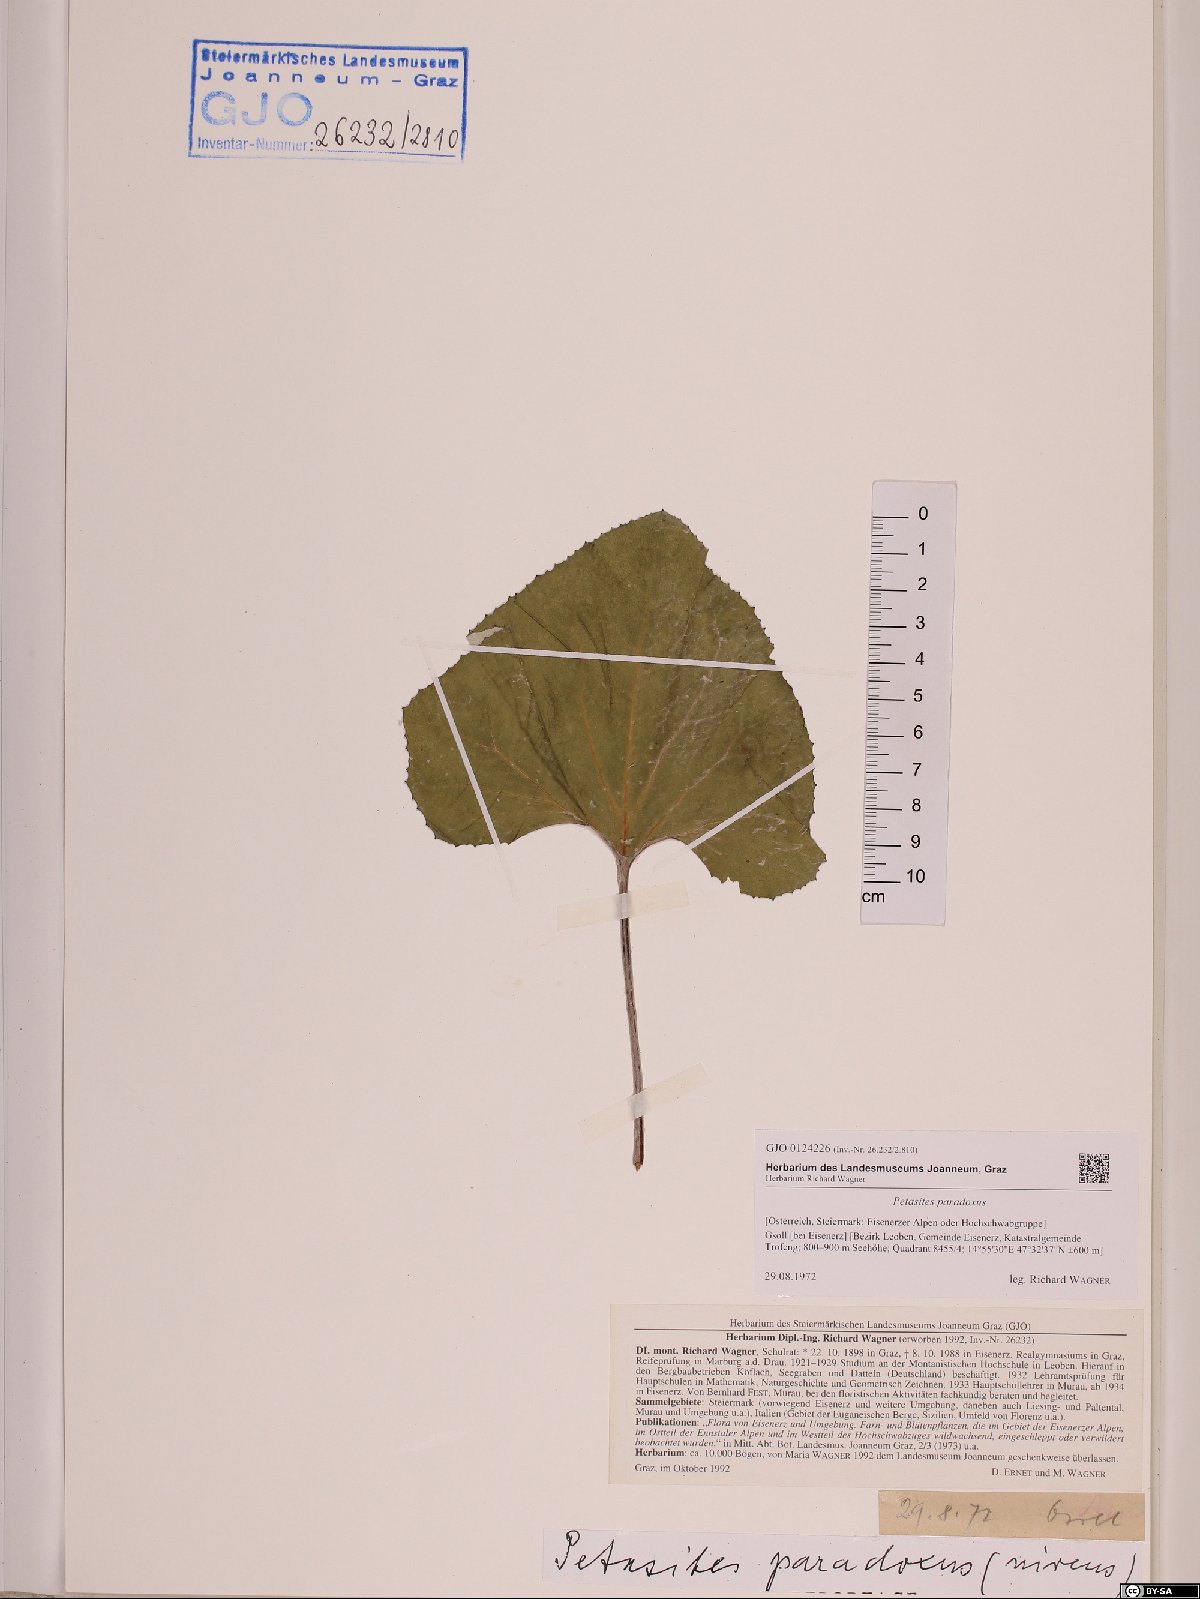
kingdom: Plantae
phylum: Tracheophyta
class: Magnoliopsida
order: Asterales
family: Asteraceae
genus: Petasites
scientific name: Petasites paradoxus
